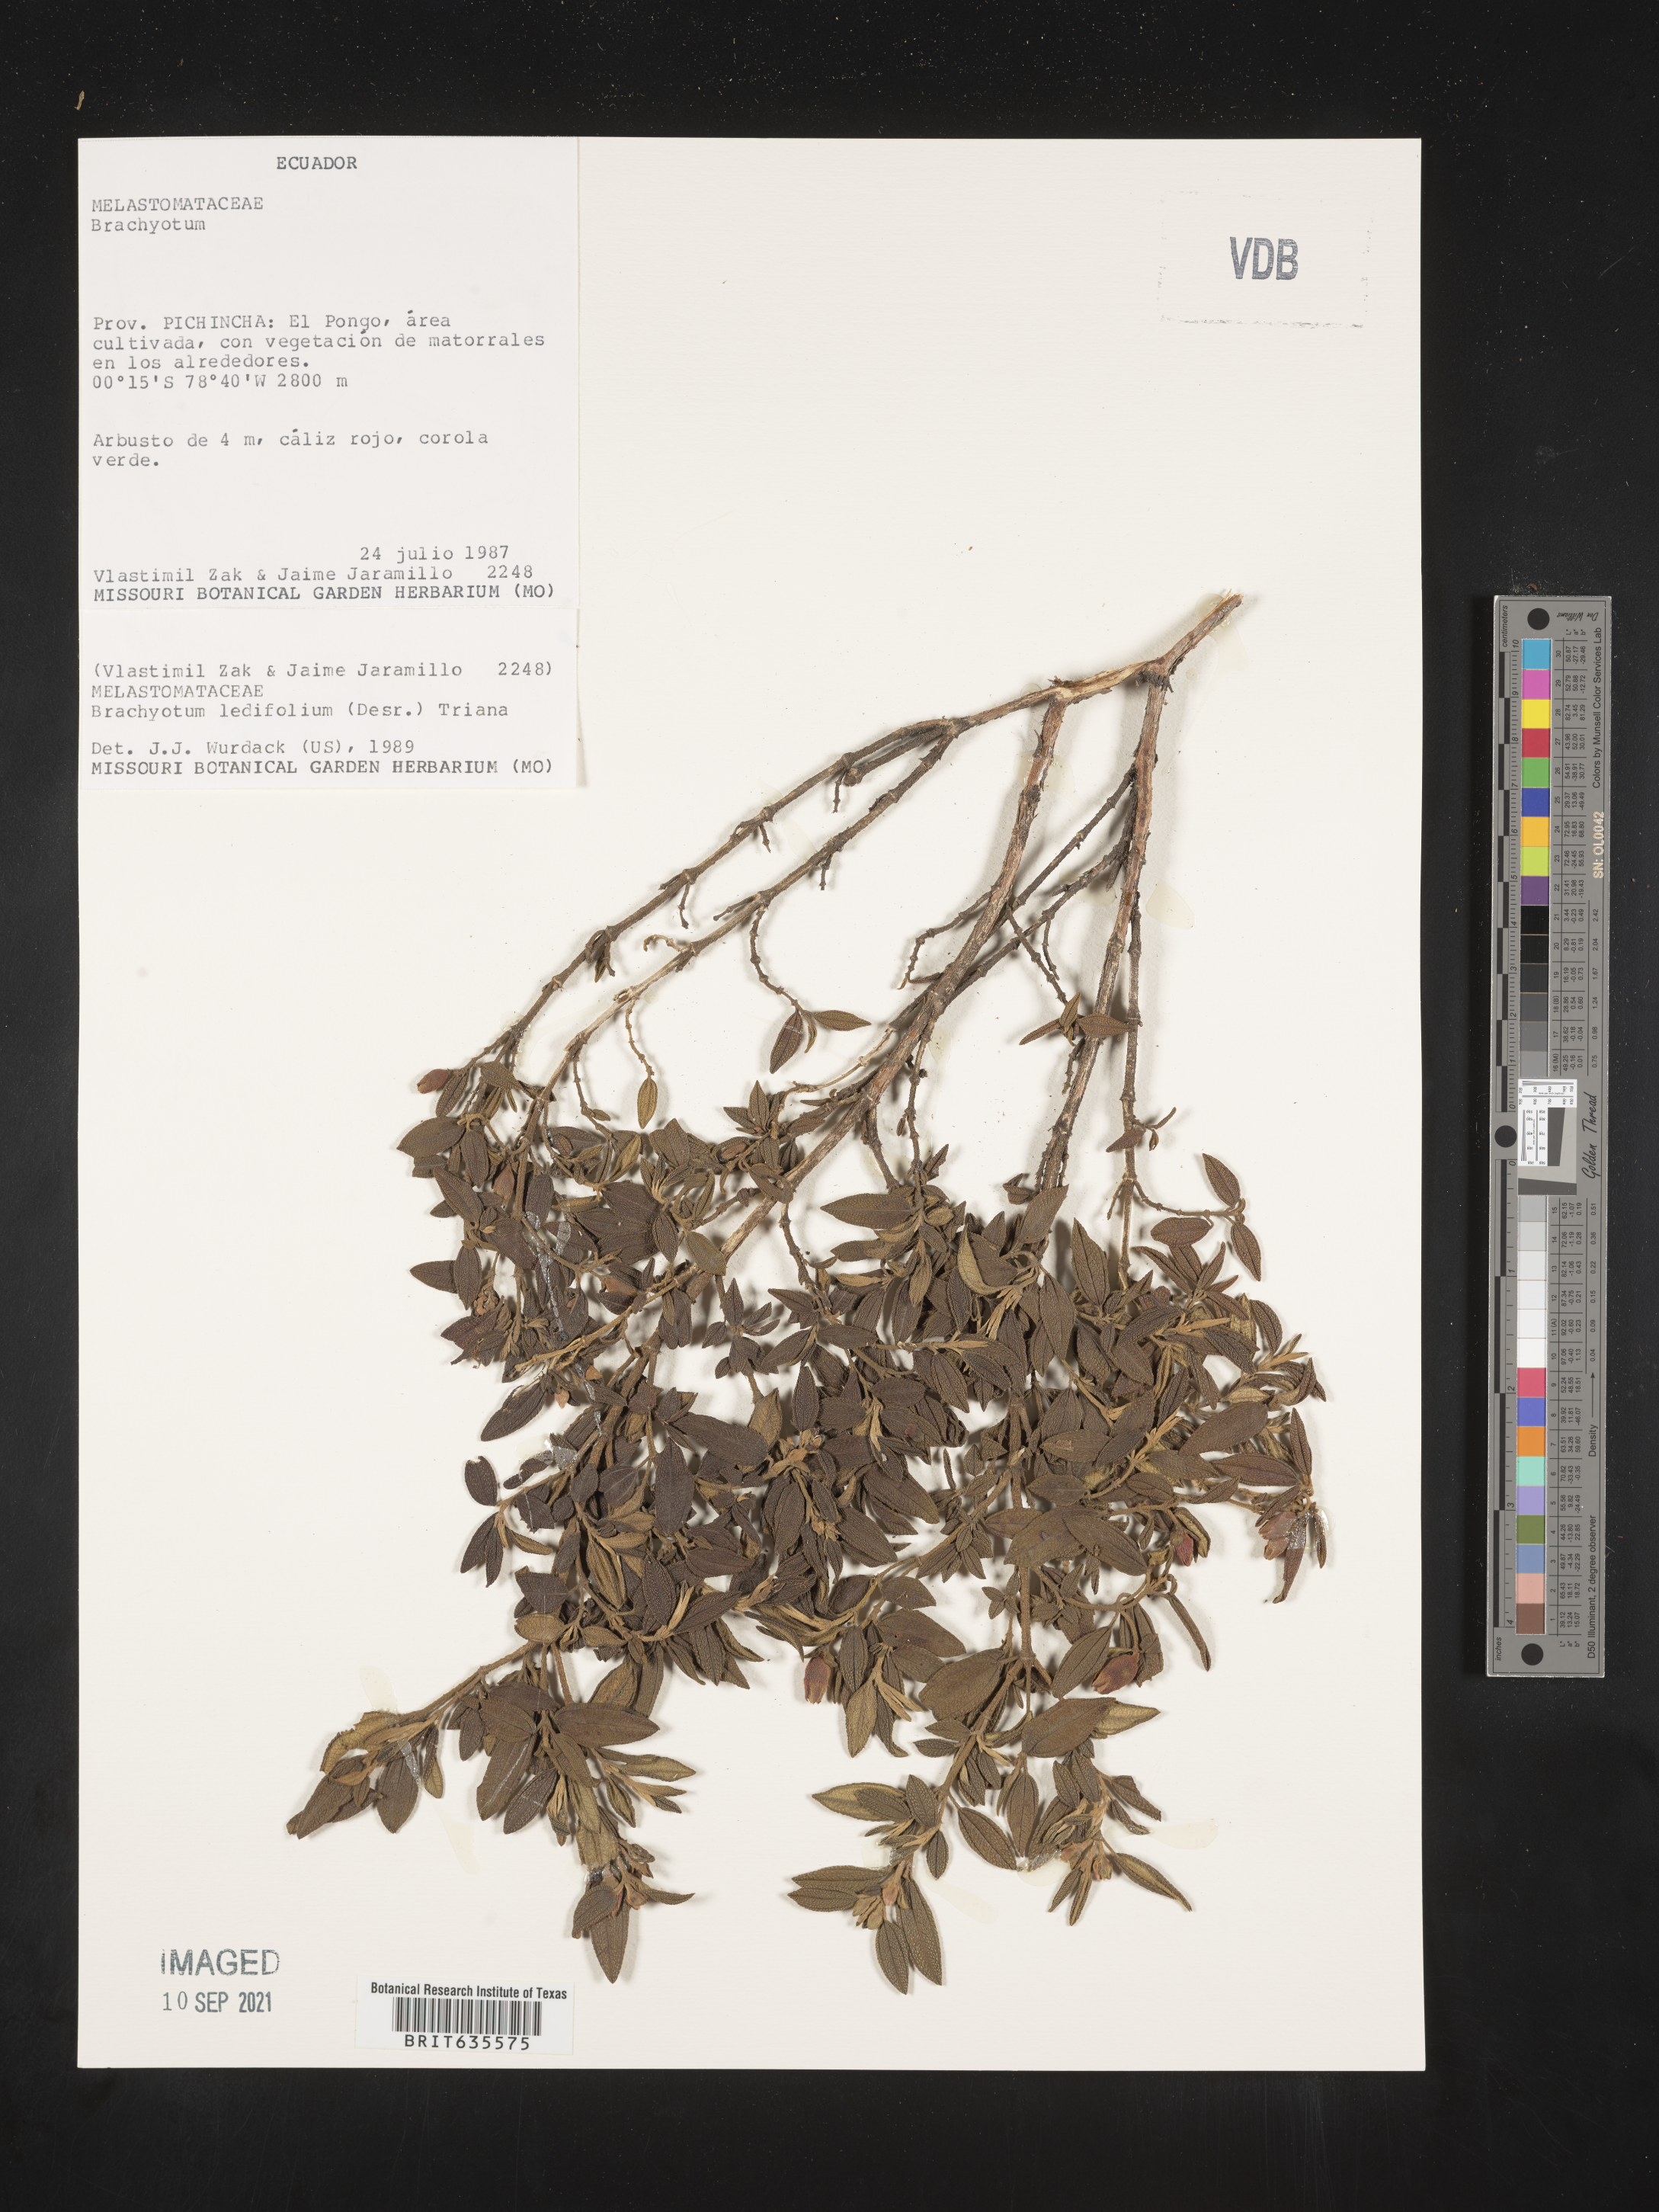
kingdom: Plantae
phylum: Tracheophyta
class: Magnoliopsida
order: Myrtales
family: Melastomataceae
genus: Brachyotum
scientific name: Brachyotum
